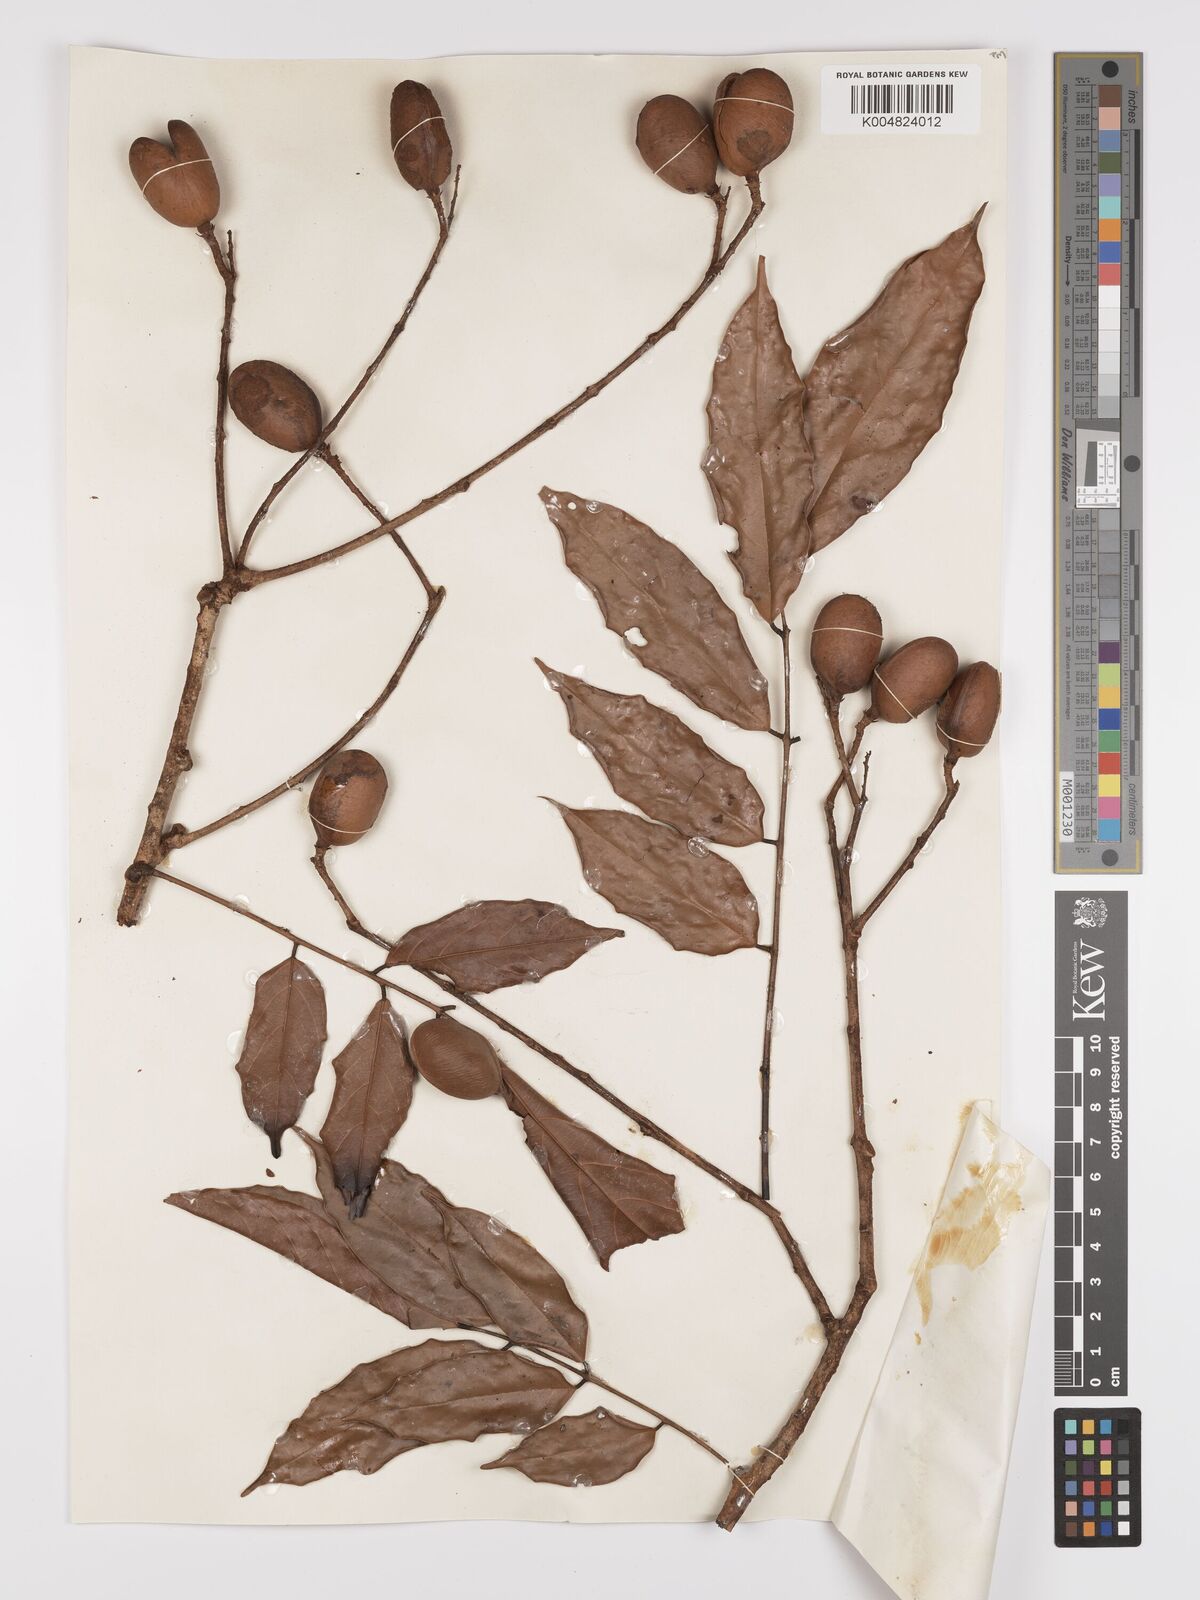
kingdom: Plantae
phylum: Tracheophyta
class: Magnoliopsida
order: Oxalidales
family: Connaraceae
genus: Connarus
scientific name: Connarus odoratus
